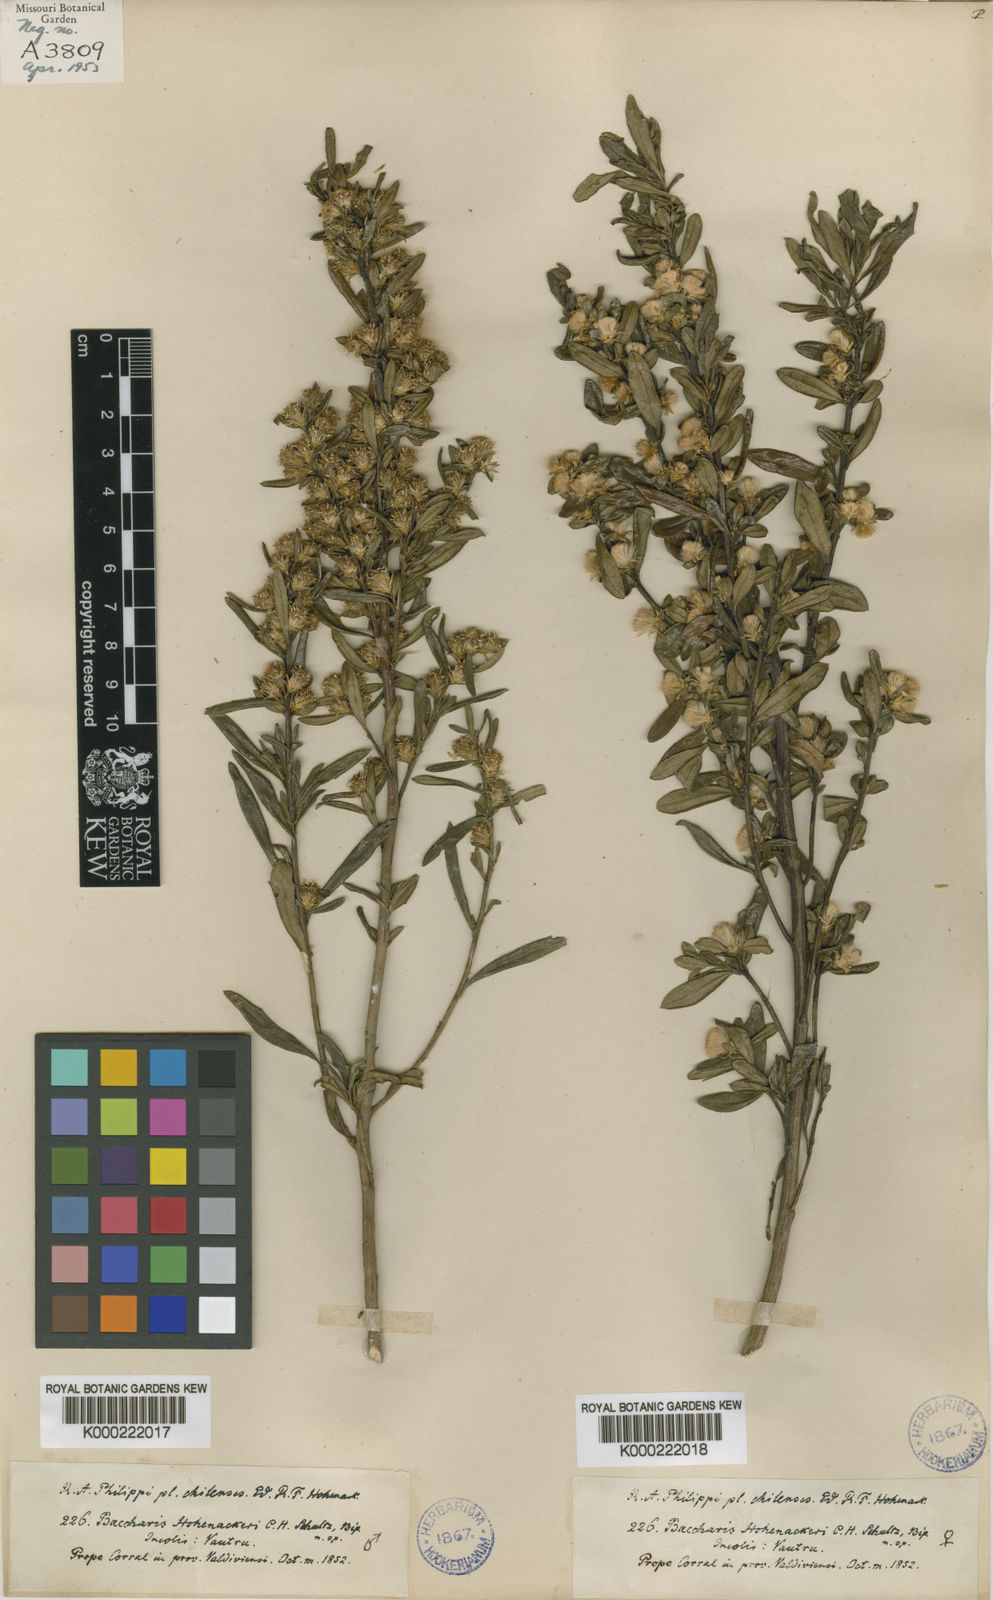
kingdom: Plantae
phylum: Tracheophyta
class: Magnoliopsida
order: Asterales
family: Asteraceae
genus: Baccharis
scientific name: Baccharis elaeoides
